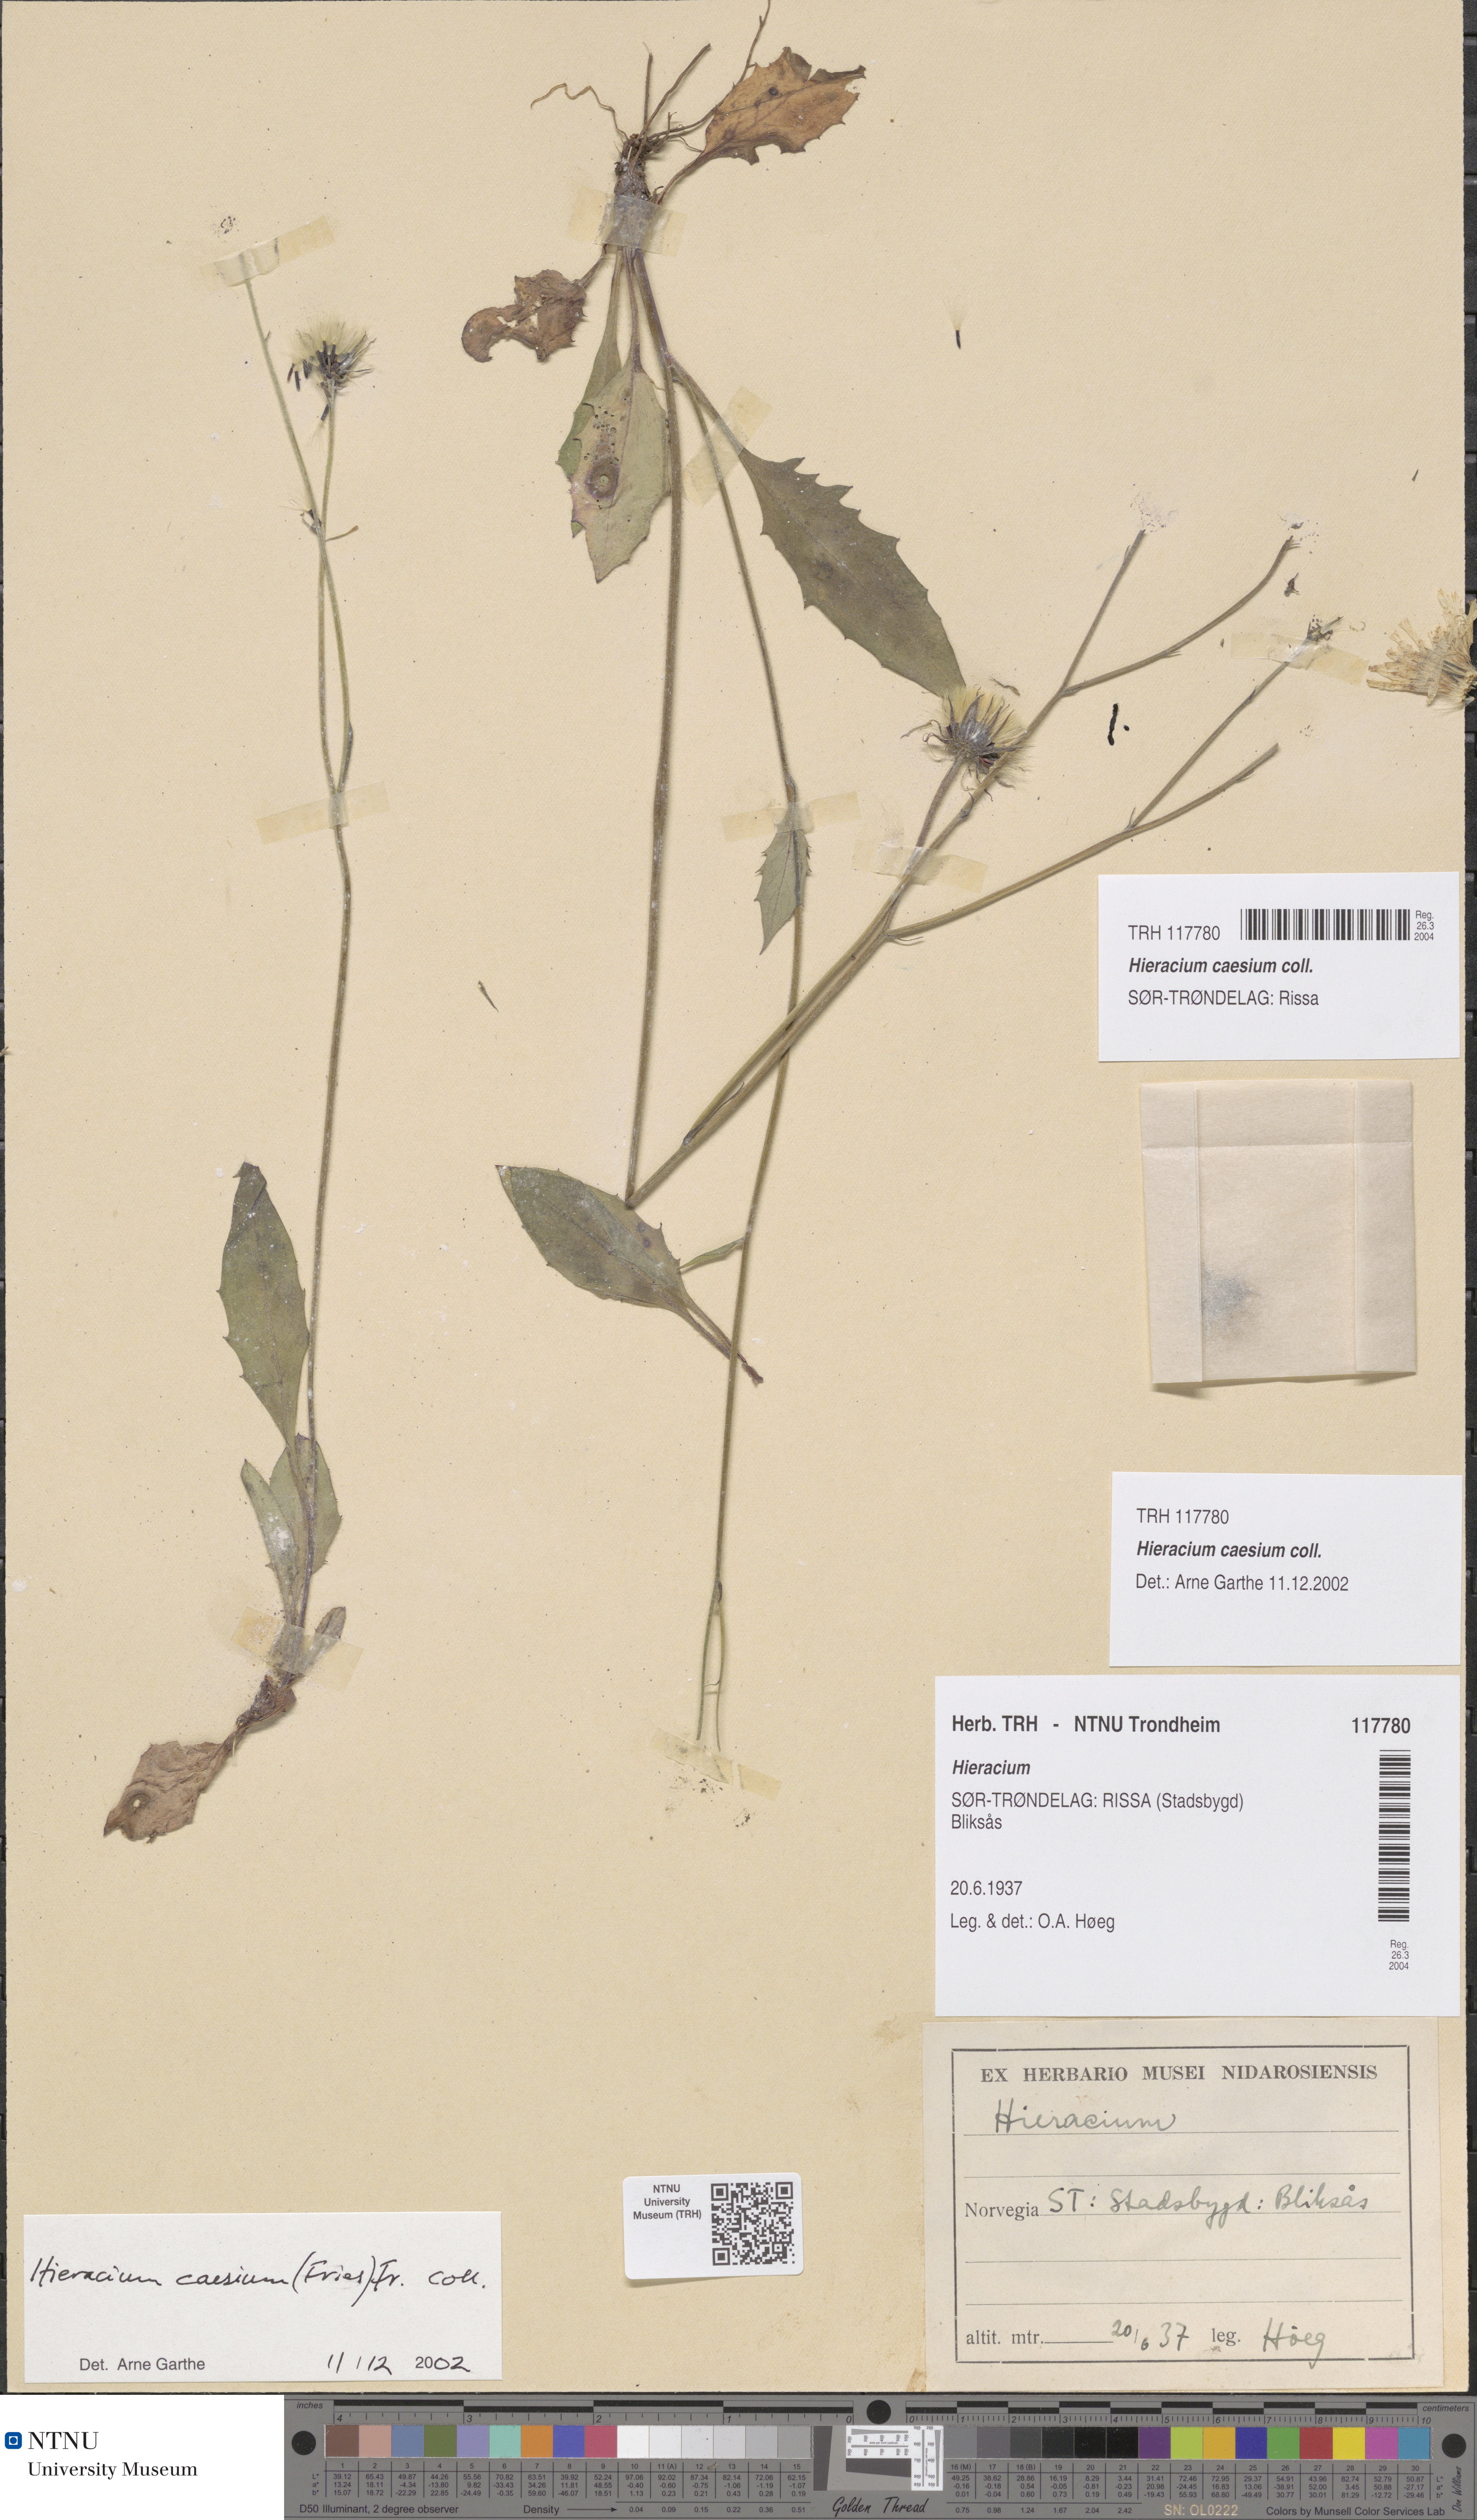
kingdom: Plantae
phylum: Tracheophyta
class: Magnoliopsida
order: Asterales
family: Asteraceae
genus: Hieracium
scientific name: Hieracium caesium
